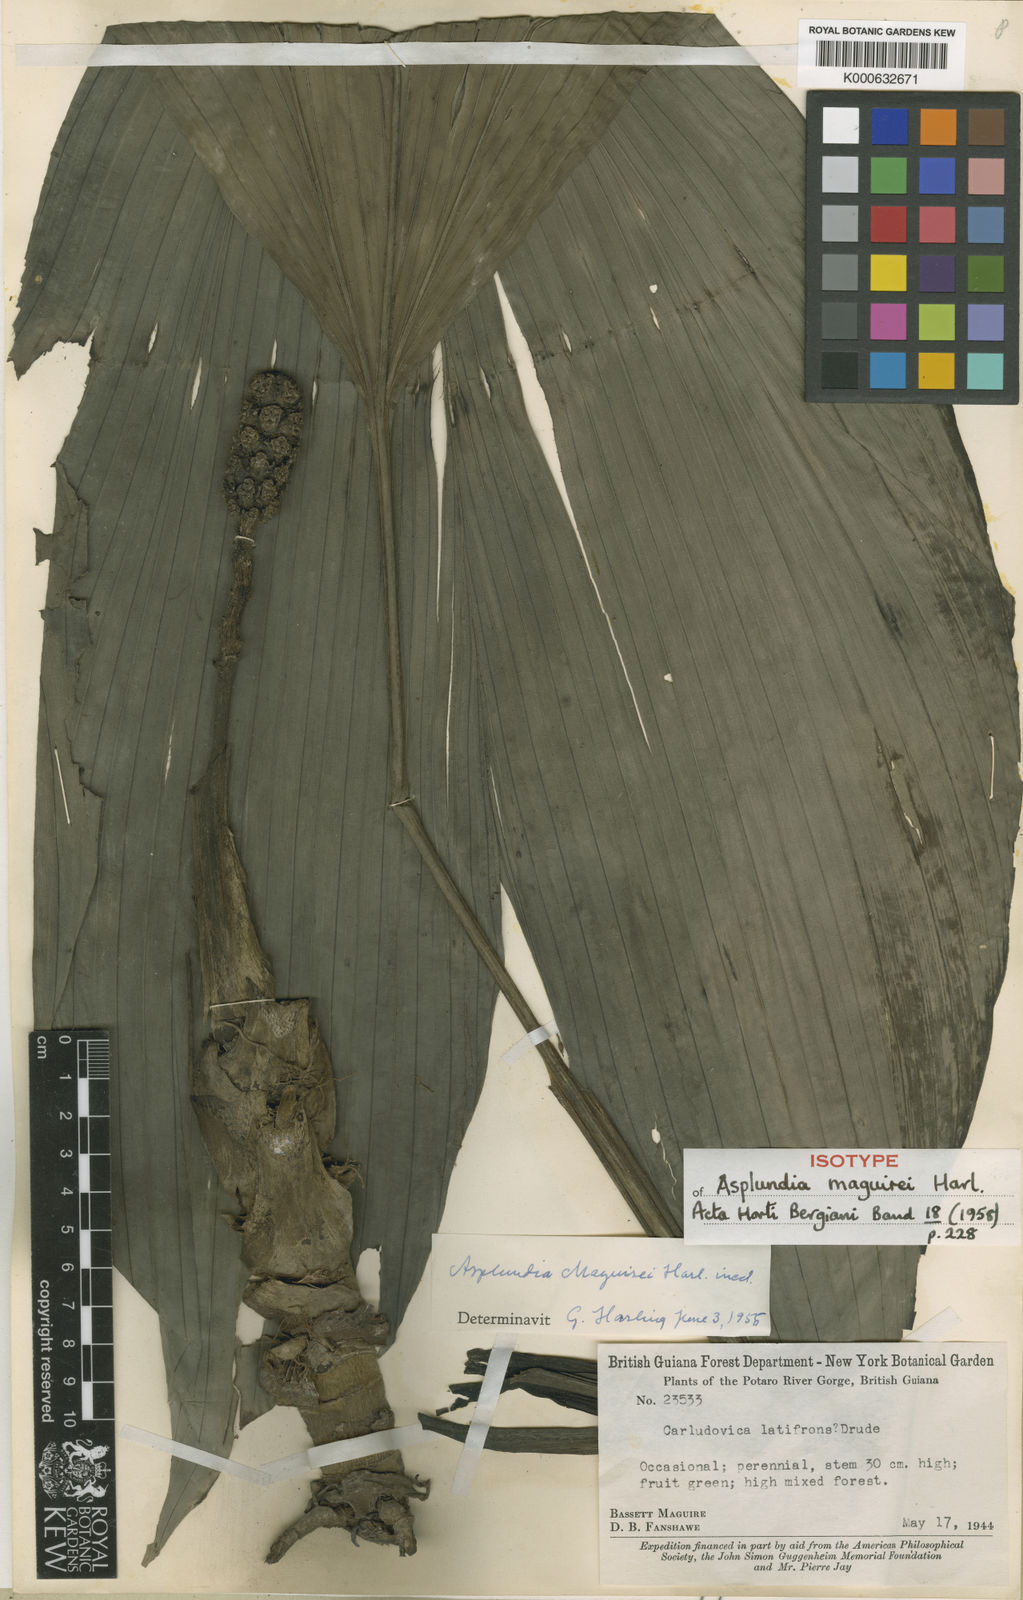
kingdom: Plantae
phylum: Tracheophyta
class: Liliopsida
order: Pandanales
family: Cyclanthaceae
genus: Asplundia
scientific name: Asplundia maguirei
